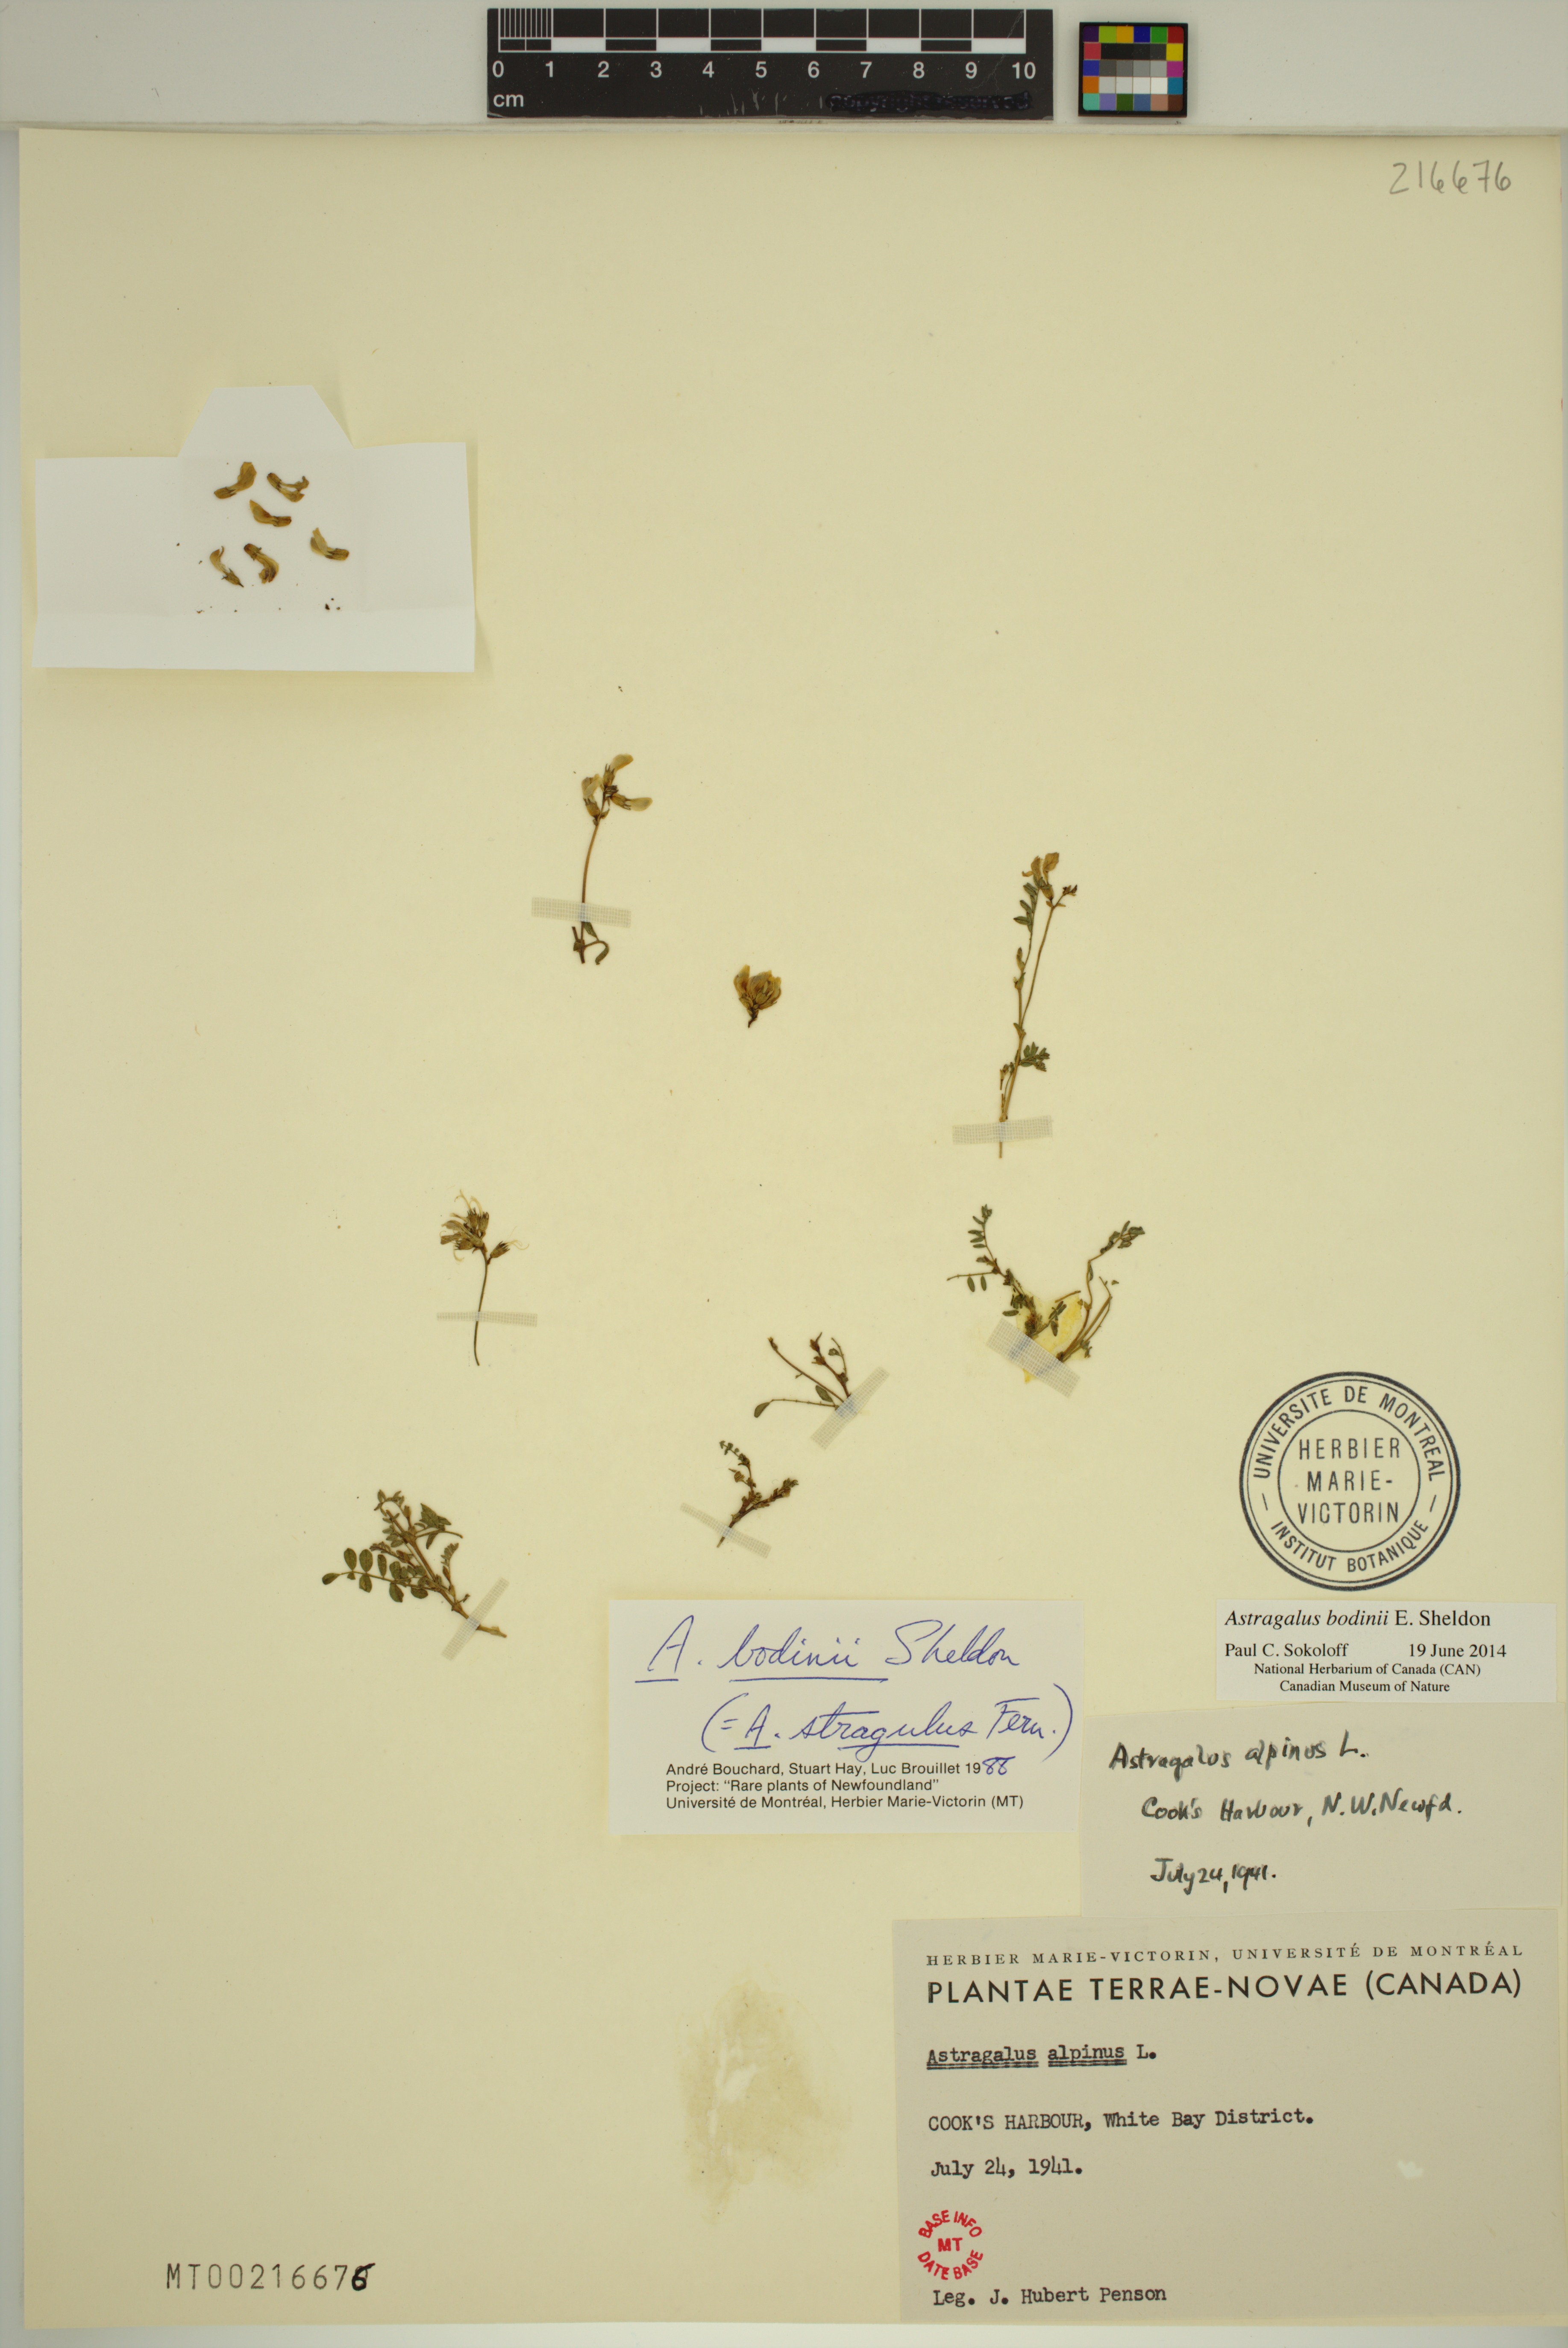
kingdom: Plantae
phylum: Tracheophyta
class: Magnoliopsida
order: Fabales
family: Fabaceae
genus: Astragalus
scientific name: Astragalus bodinii
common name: Bodin's milk-vetch
